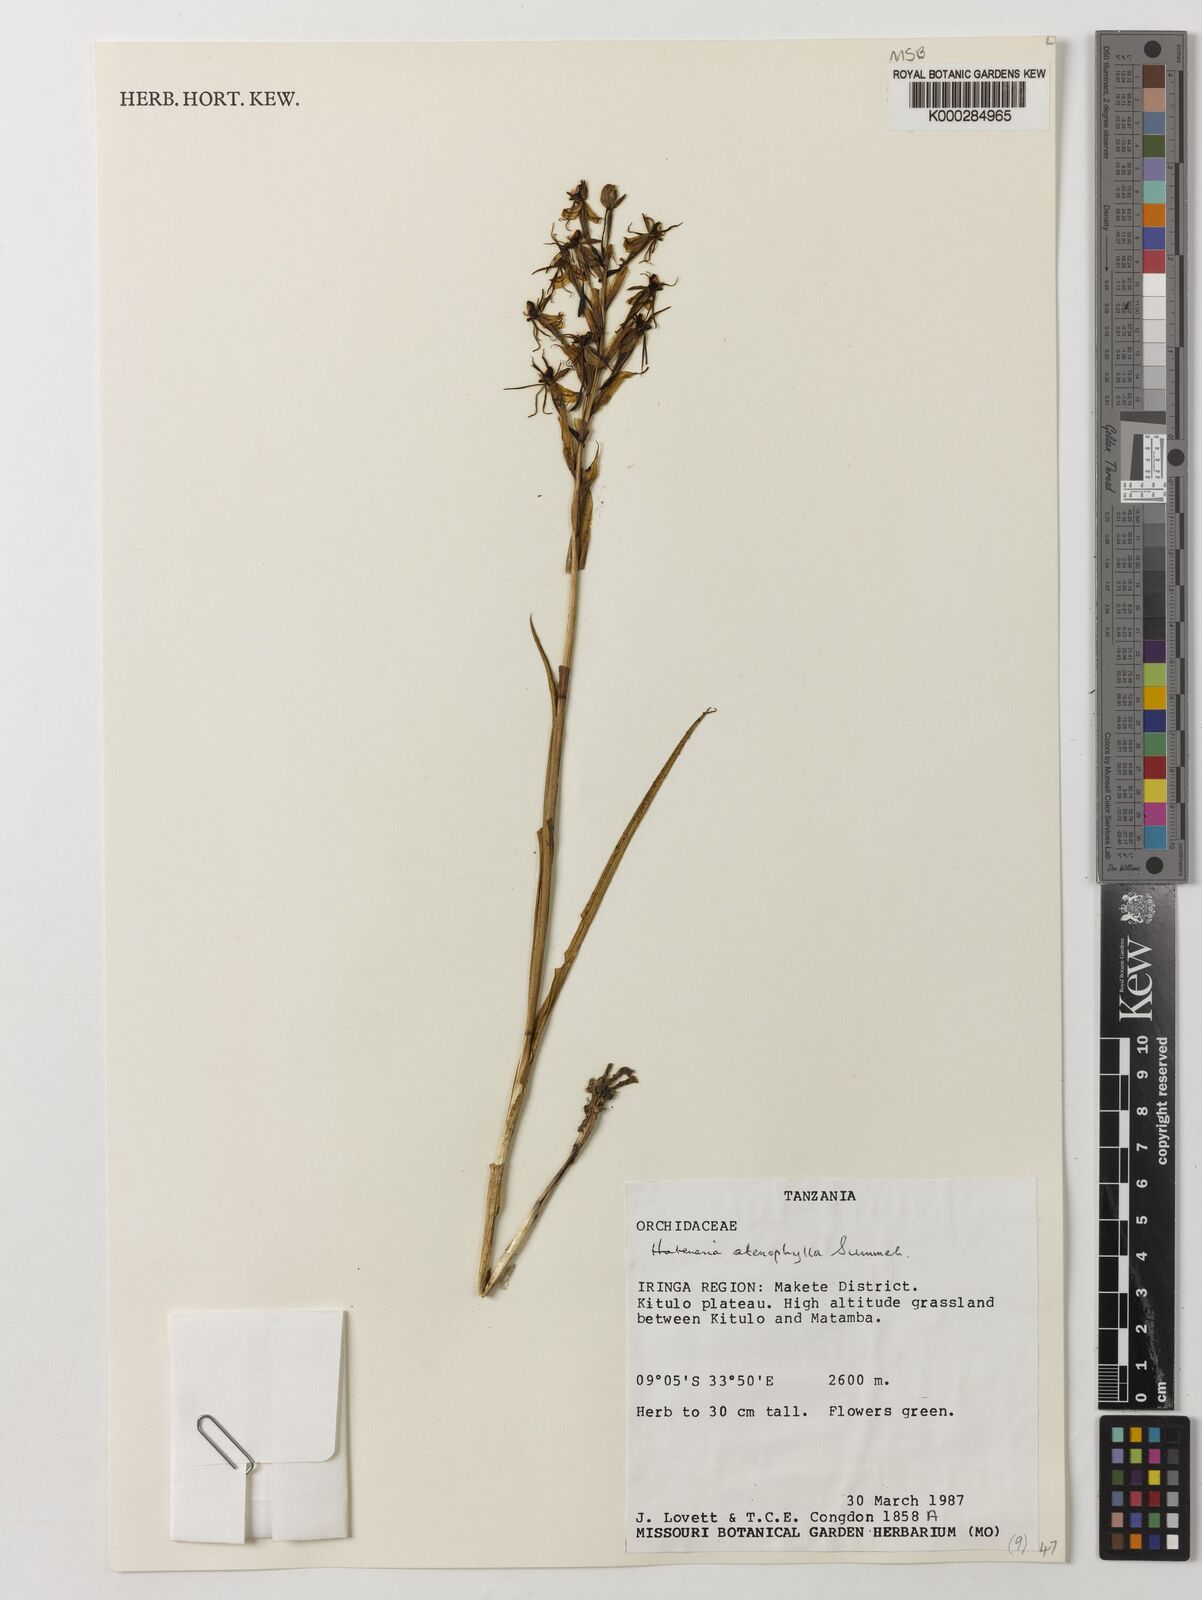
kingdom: Plantae
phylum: Tracheophyta
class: Liliopsida
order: Asparagales
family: Orchidaceae
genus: Habenaria
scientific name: Habenaria stenophylla
